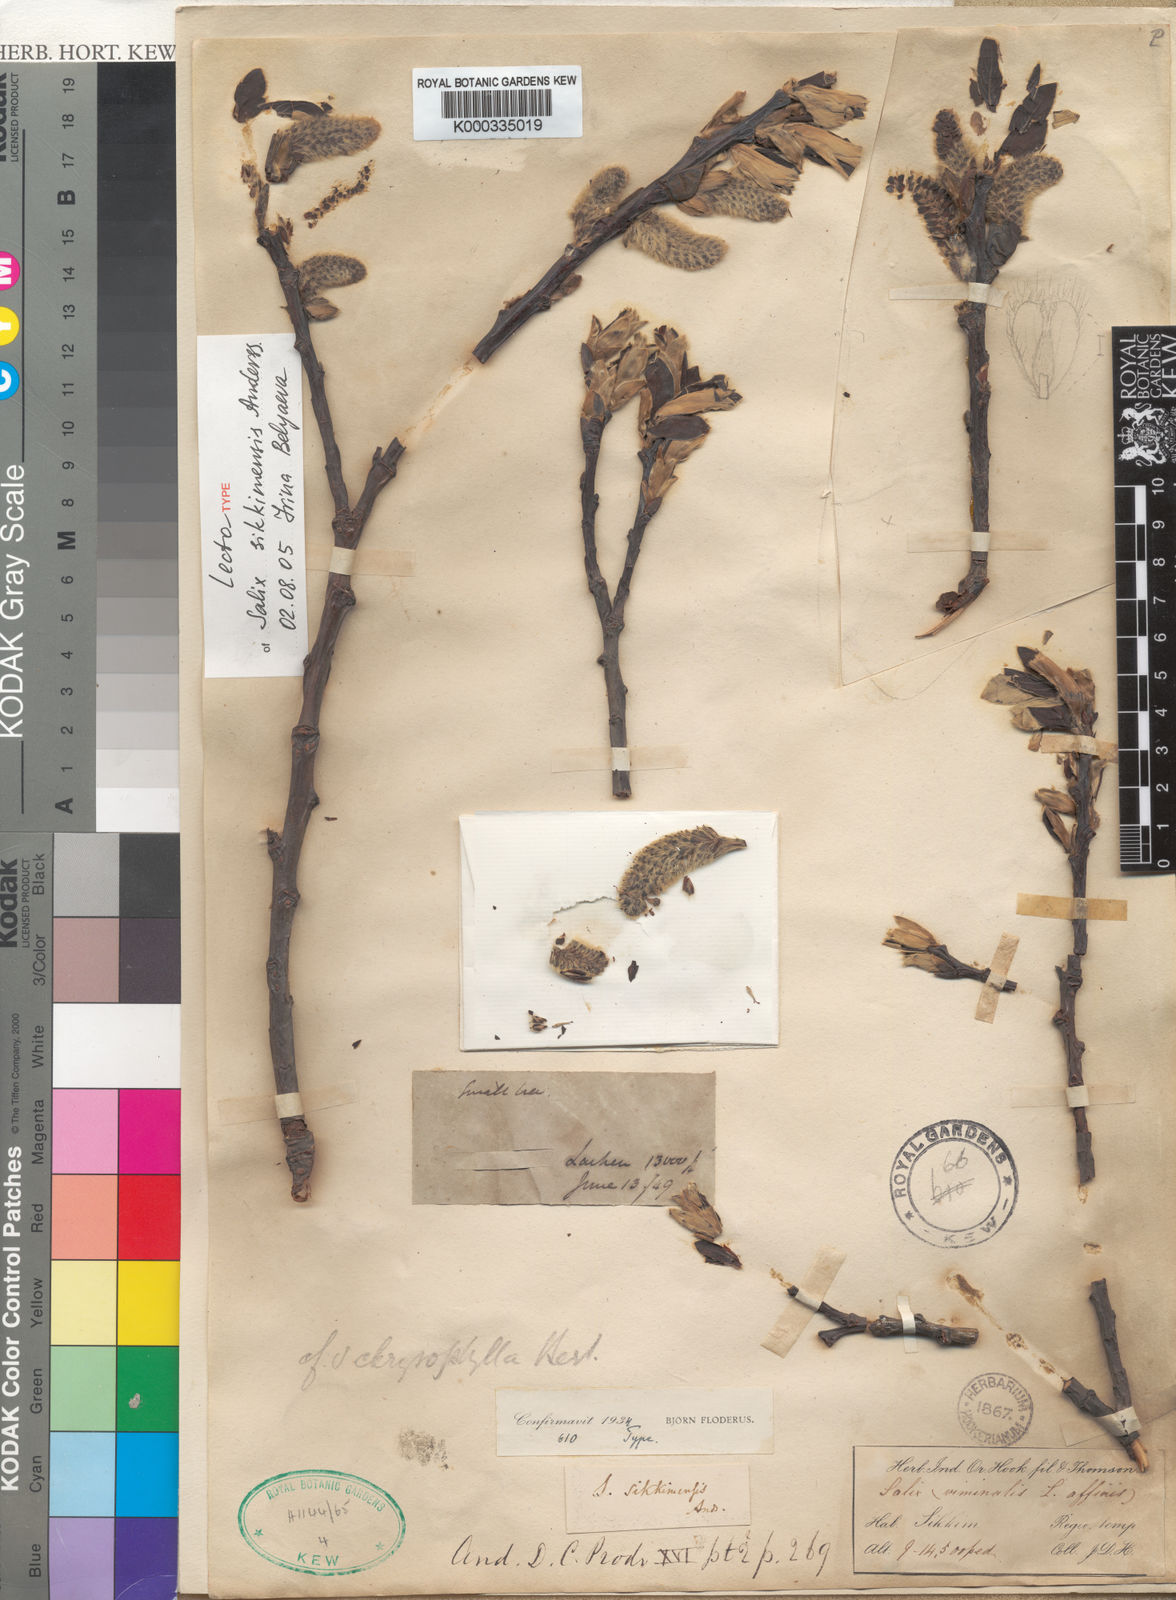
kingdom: Plantae
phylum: Tracheophyta
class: Magnoliopsida
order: Malpighiales
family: Salicaceae
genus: Salix
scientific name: Salix sikkimensis
